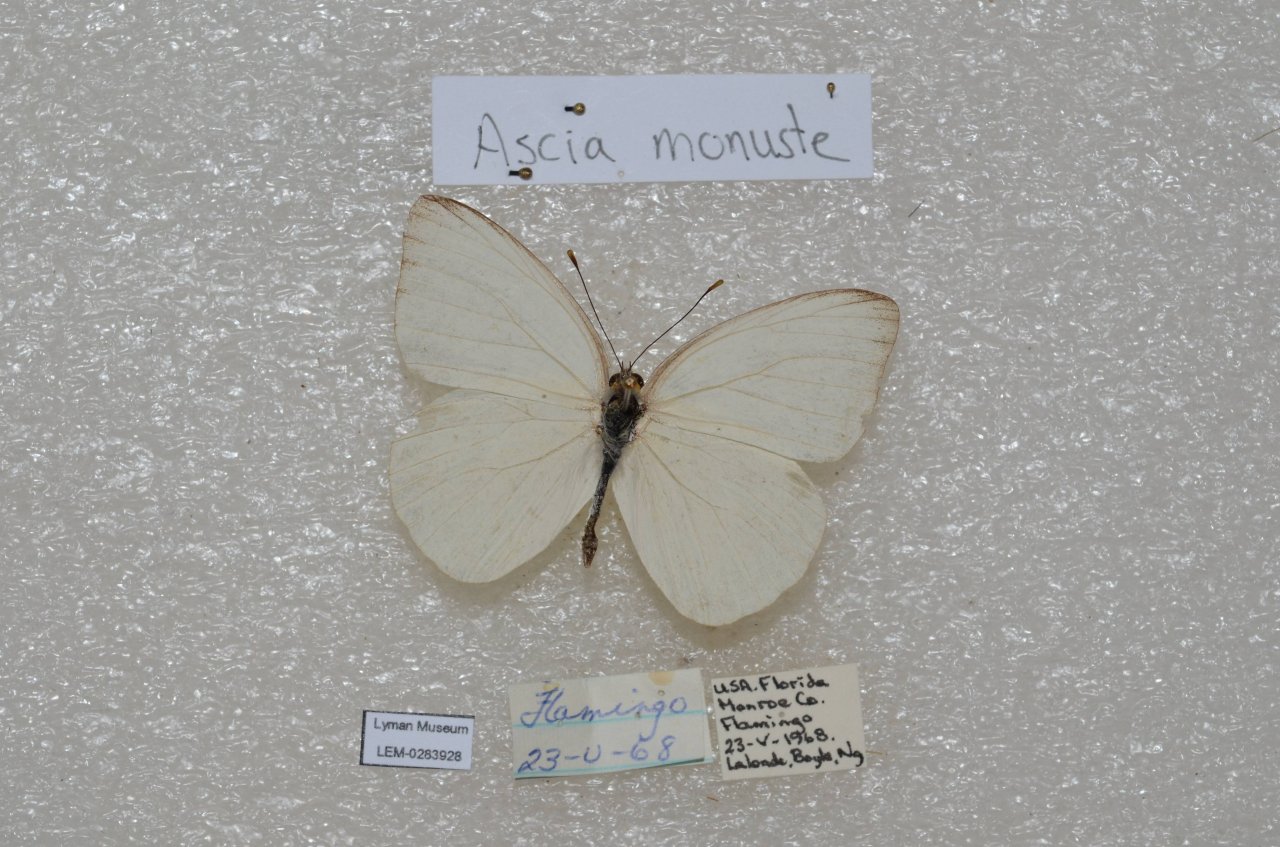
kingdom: Animalia
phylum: Arthropoda
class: Insecta
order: Lepidoptera
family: Pieridae
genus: Ascia
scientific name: Ascia monuste
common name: Great Southern White
